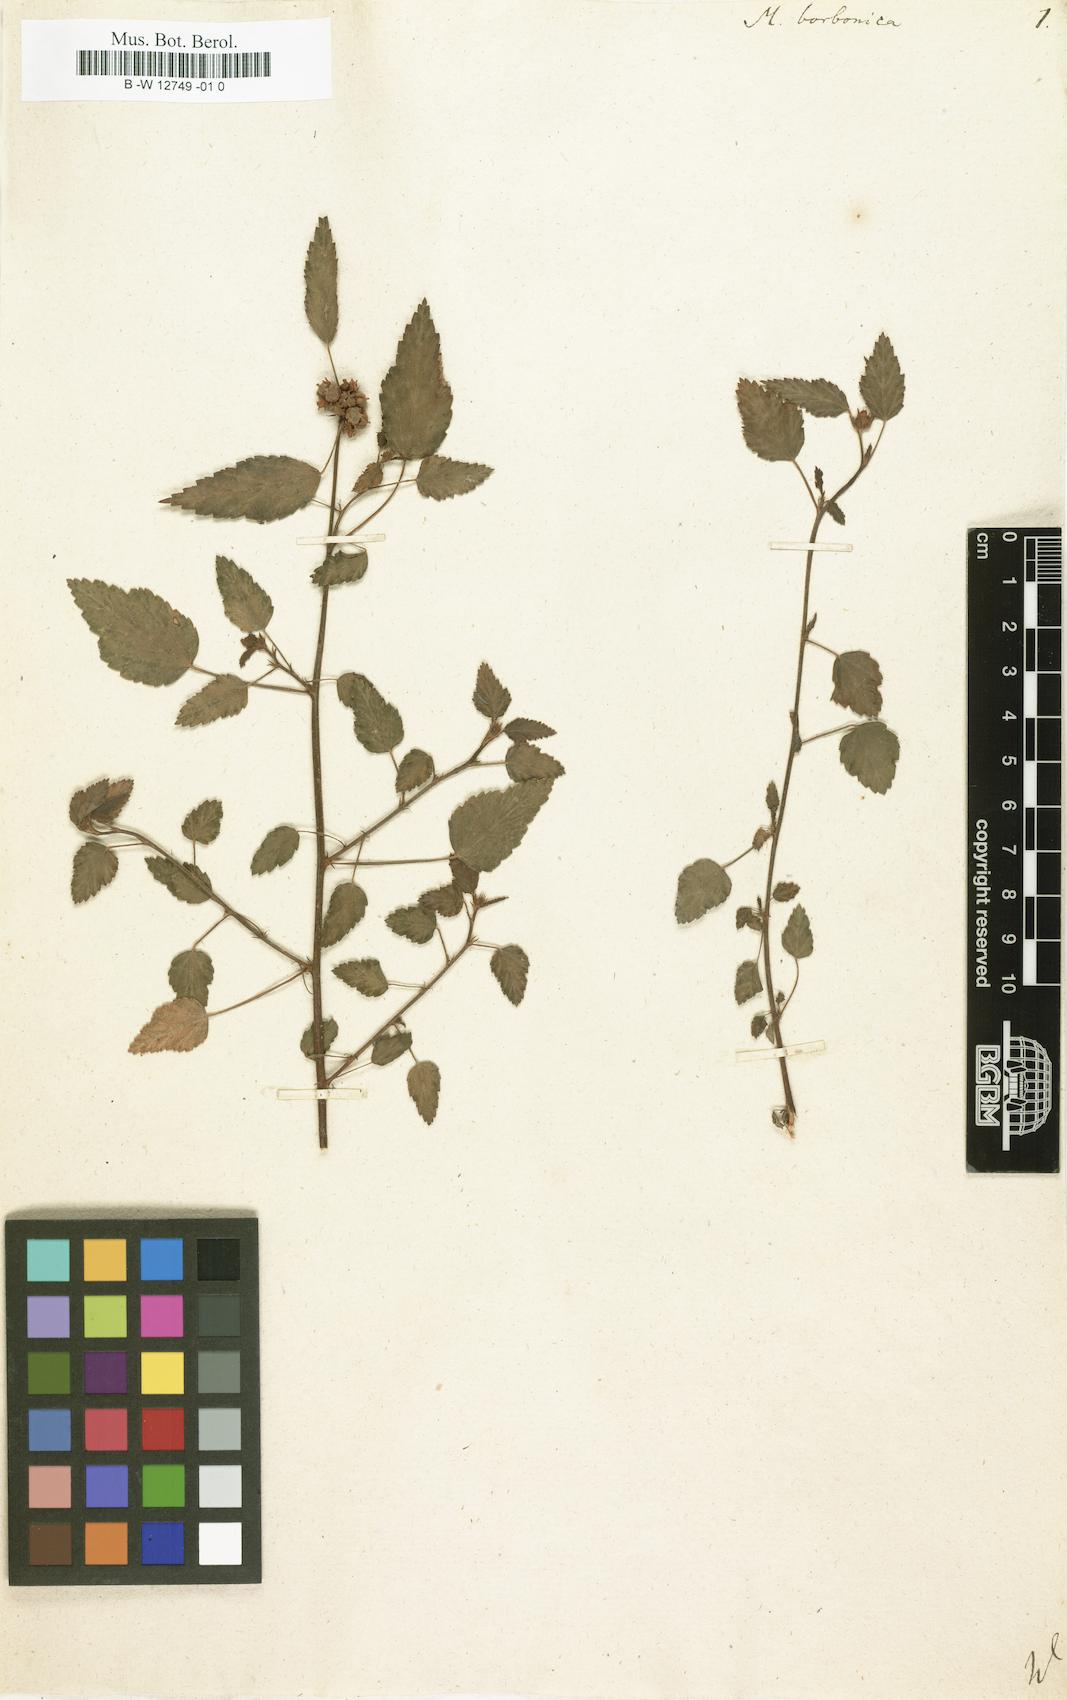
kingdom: Plantae
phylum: Tracheophyta
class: Magnoliopsida
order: Malvales
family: Malvaceae
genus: Malvastrum
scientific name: Malvastrum coromandelianum
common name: Threelobe false mallow
